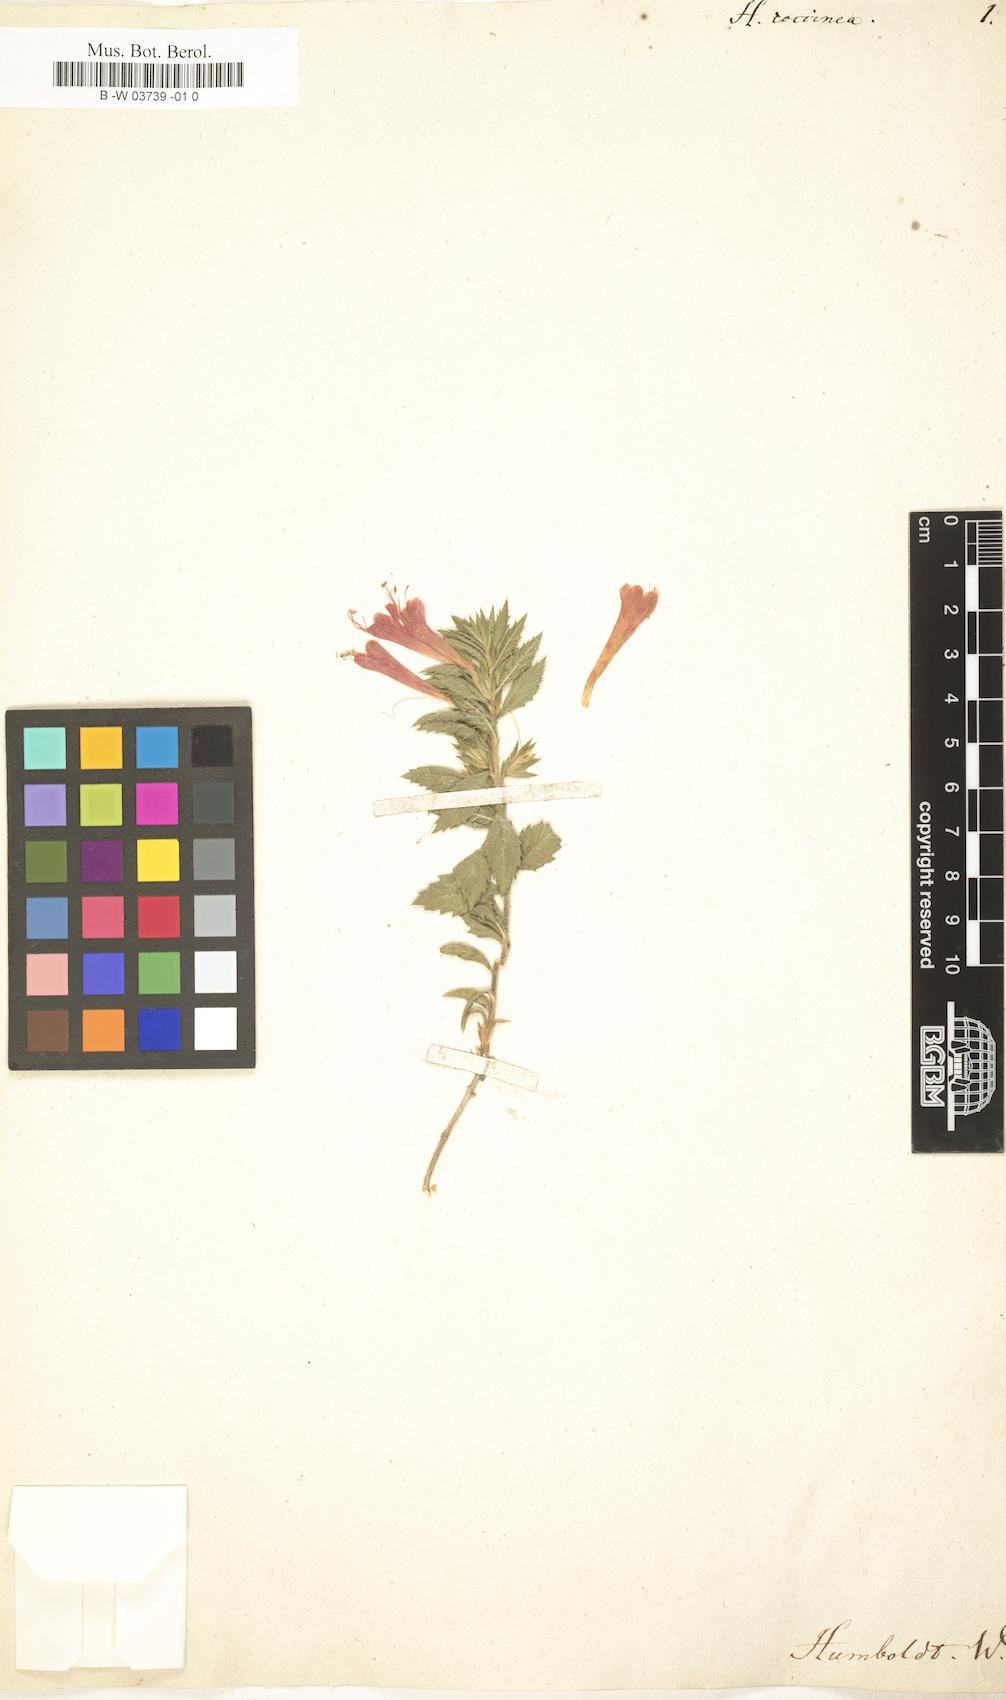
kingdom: Plantae
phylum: Tracheophyta
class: Magnoliopsida
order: Ericales
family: Polemoniaceae
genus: Loeselia
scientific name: Loeselia mexicana
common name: Mexican false calico
